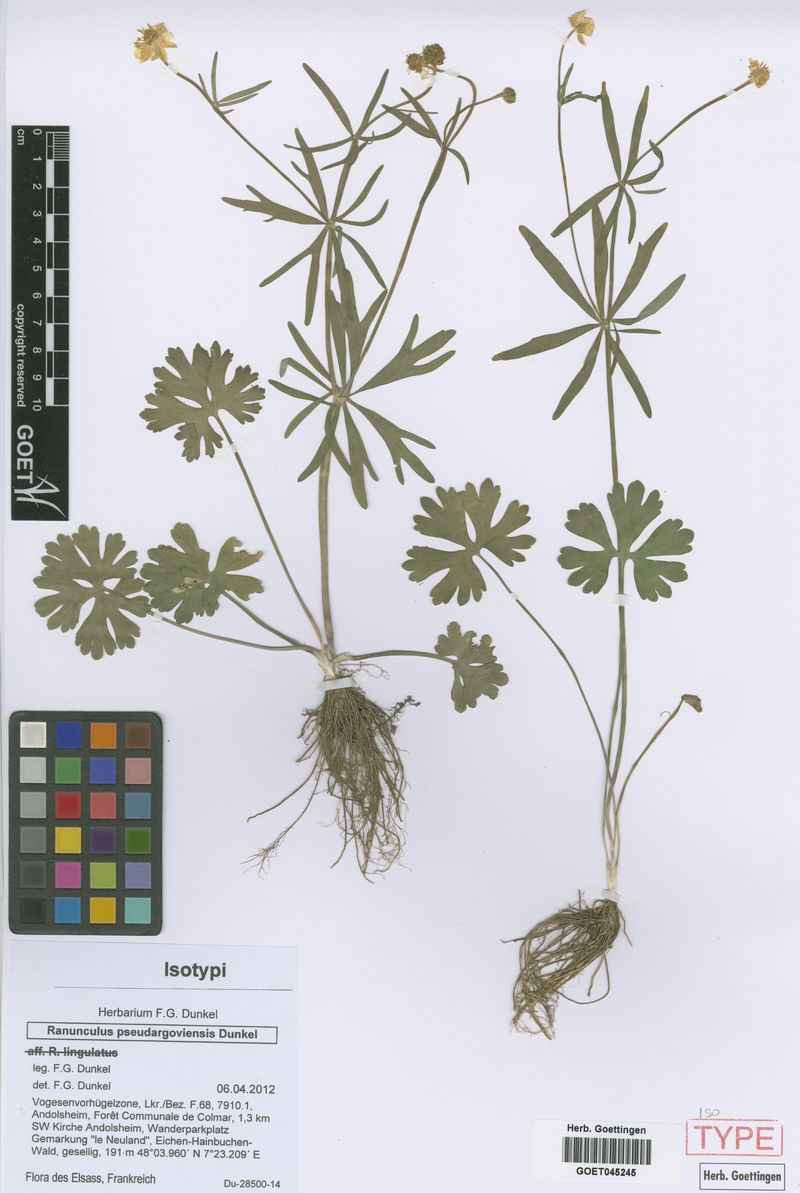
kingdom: Plantae
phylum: Tracheophyta
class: Magnoliopsida
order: Ranunculales
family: Ranunculaceae
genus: Ranunculus
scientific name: Ranunculus pseudargoviensis
